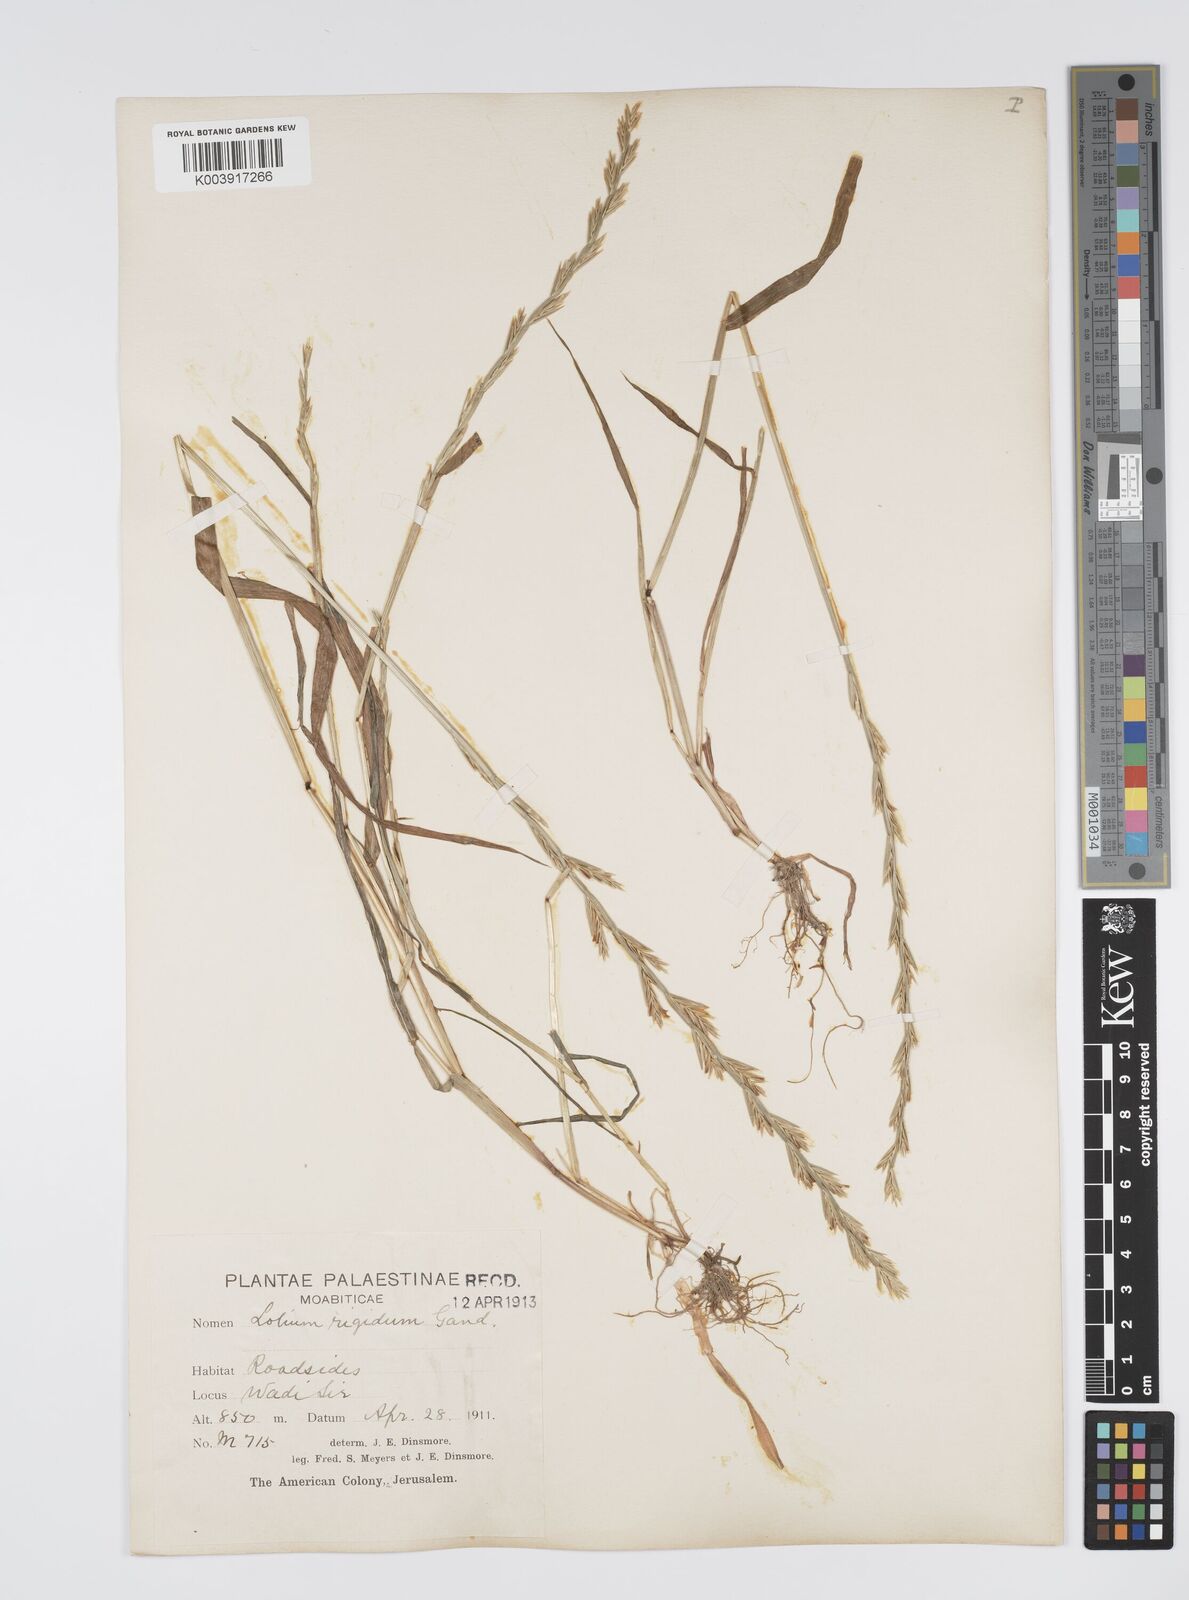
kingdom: Plantae
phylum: Tracheophyta
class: Liliopsida
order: Poales
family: Poaceae
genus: Lolium
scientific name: Lolium rigidum
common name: Wimmera ryegrass
